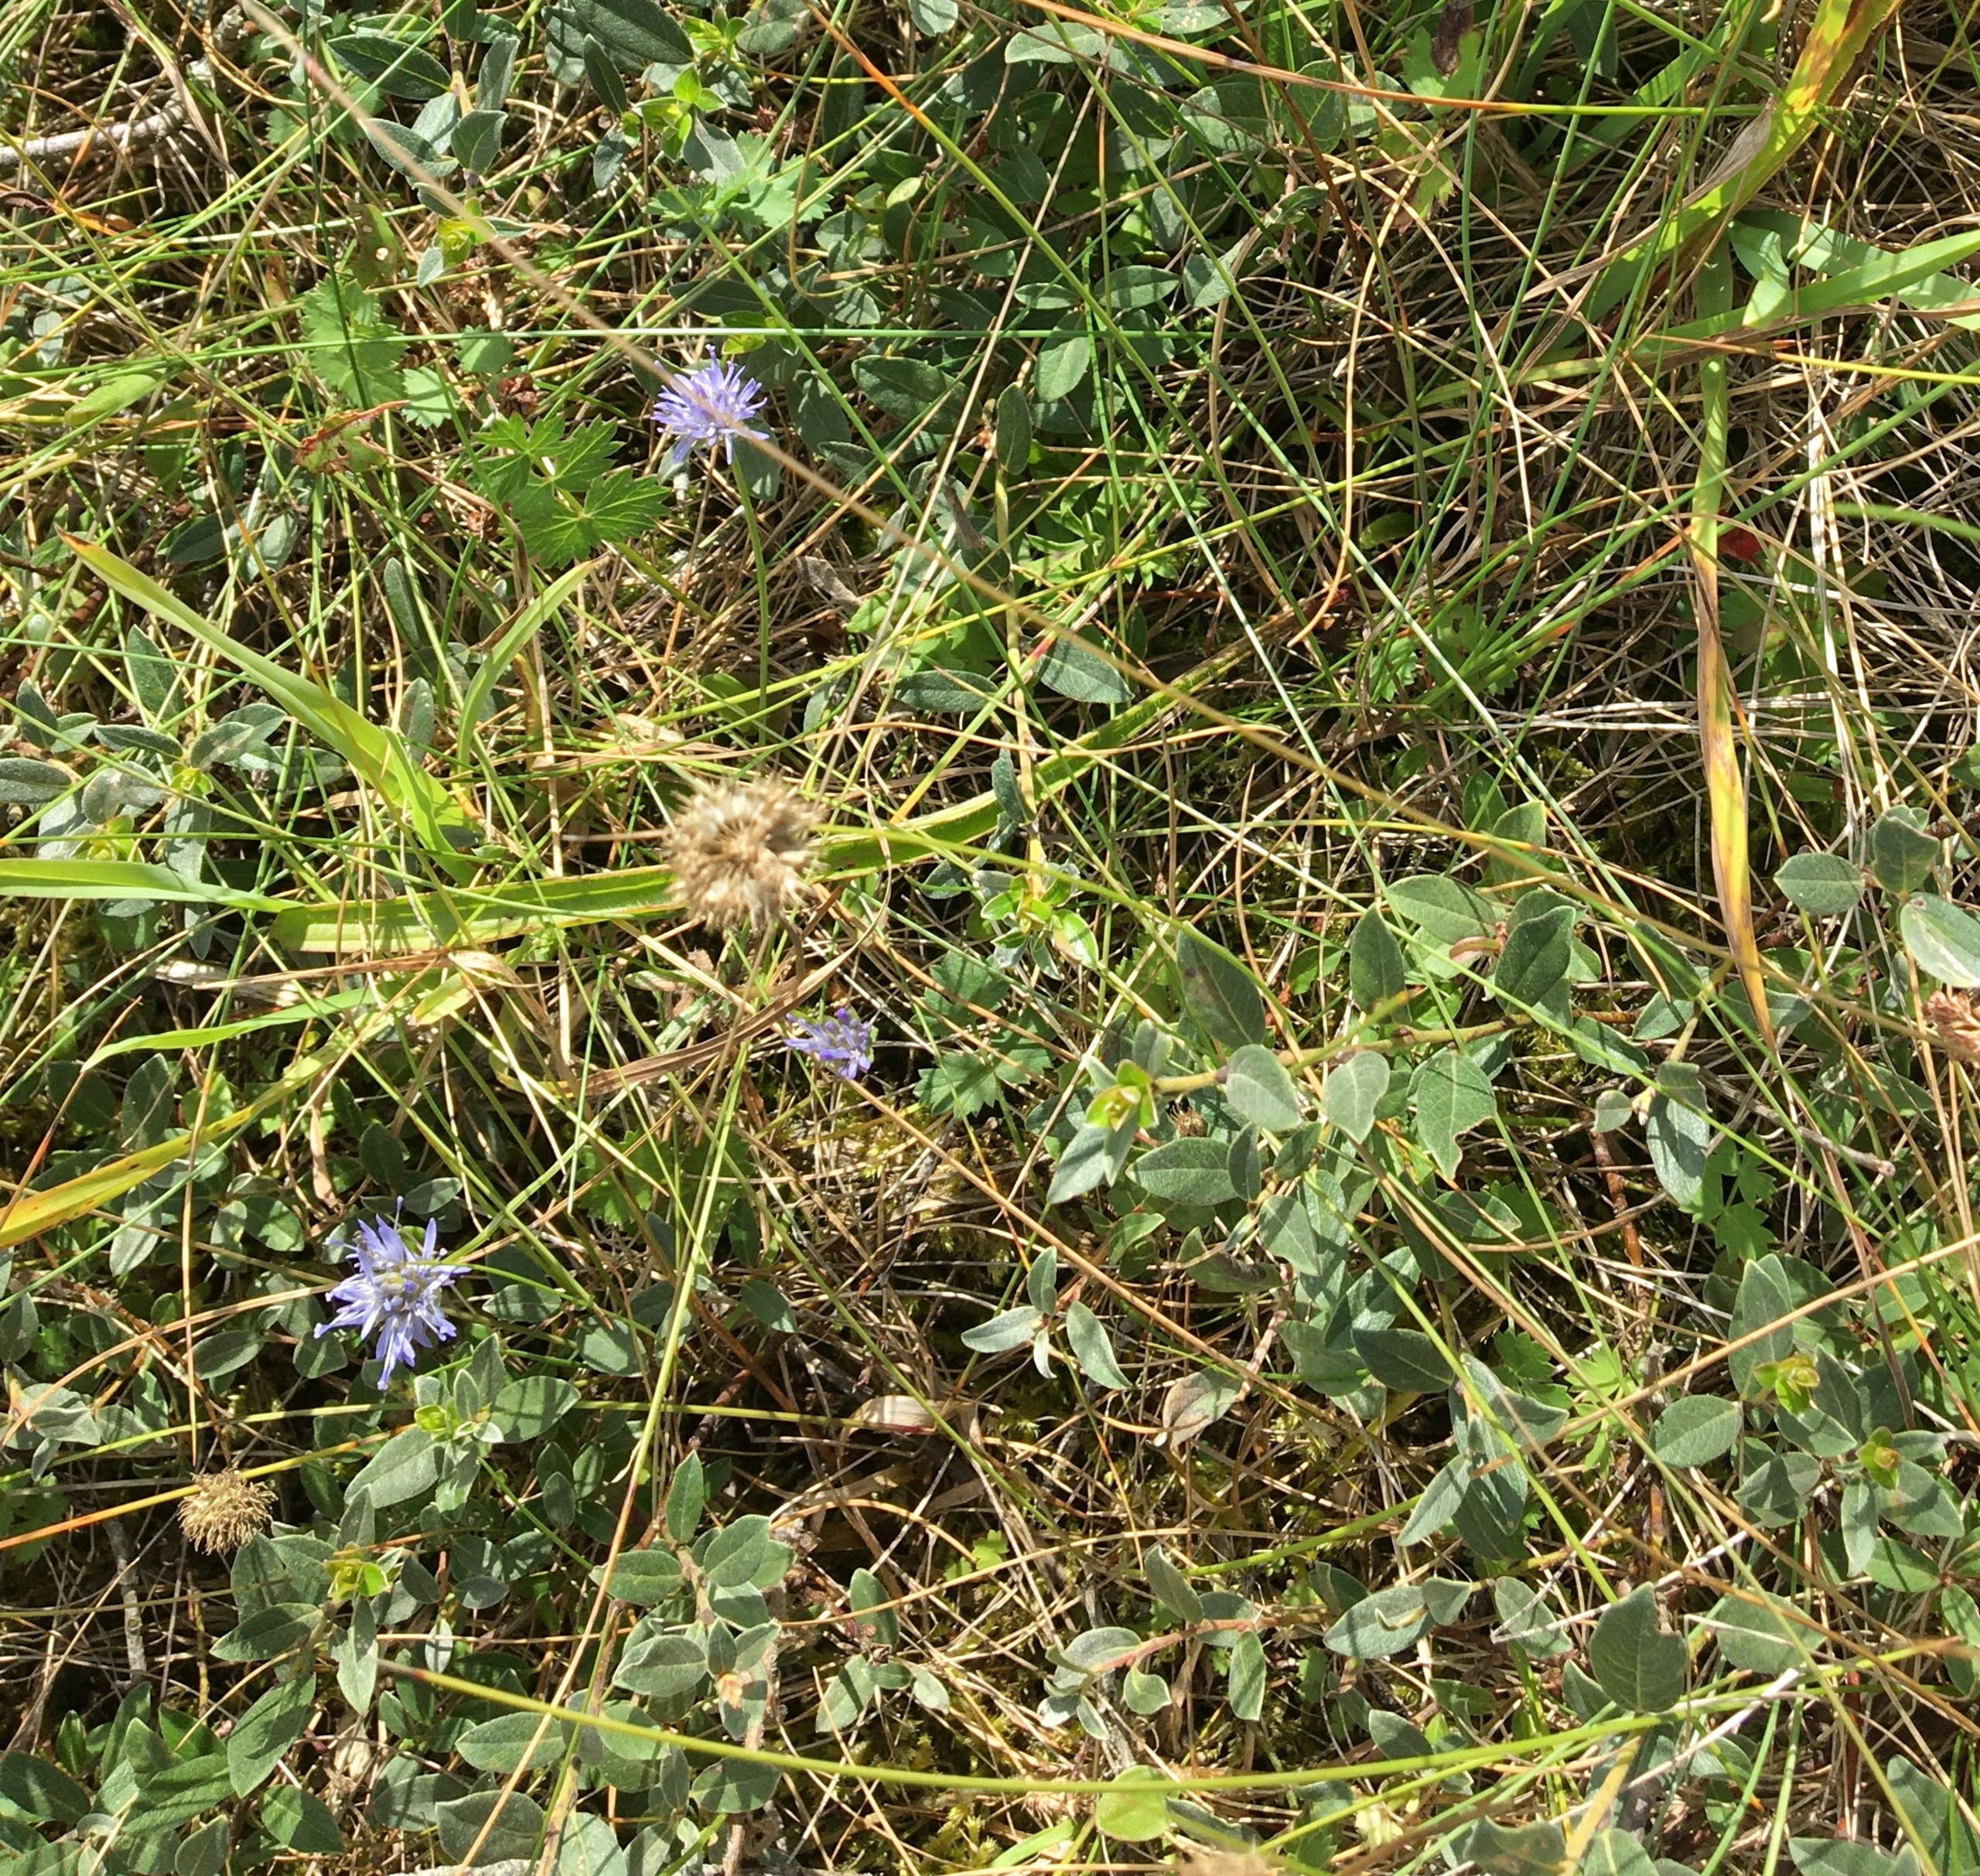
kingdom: Plantae
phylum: Tracheophyta
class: Magnoliopsida
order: Asterales
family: Campanulaceae
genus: Jasione
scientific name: Jasione montana
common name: Blåmunke
